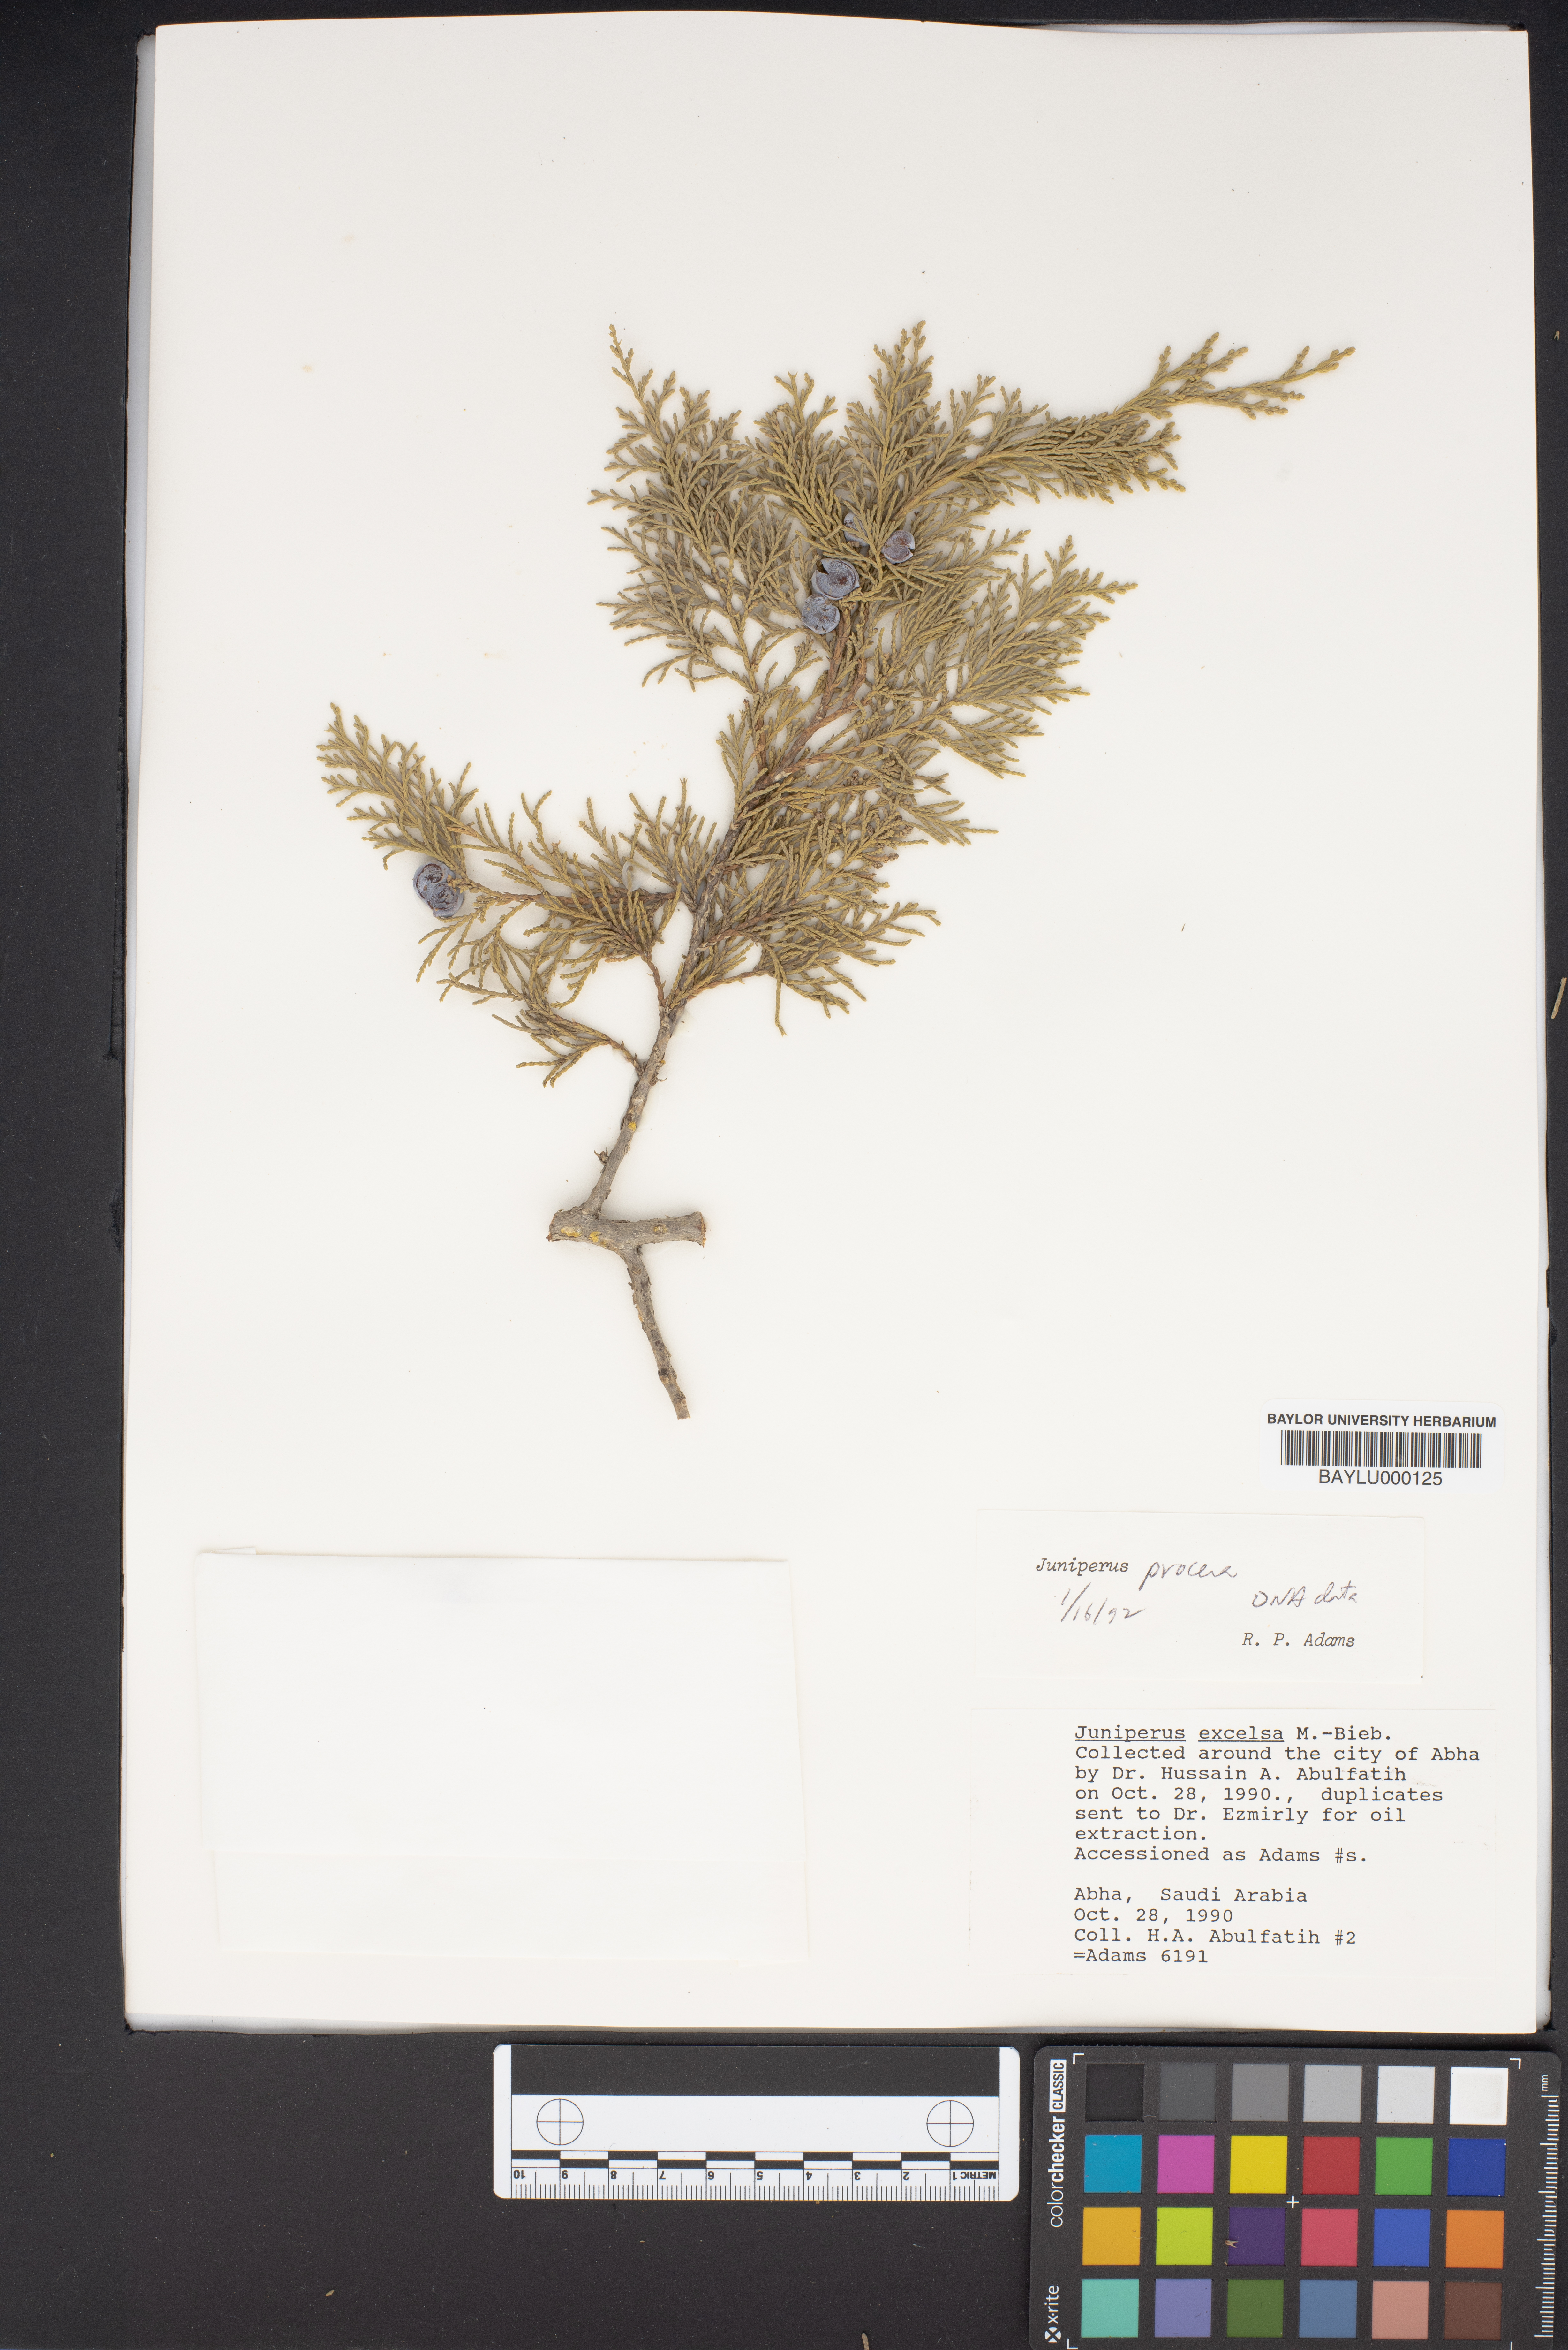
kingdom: Plantae
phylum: Tracheophyta
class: Pinopsida
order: Pinales
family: Cupressaceae
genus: Juniperus
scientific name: Juniperus procera
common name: African juniper
